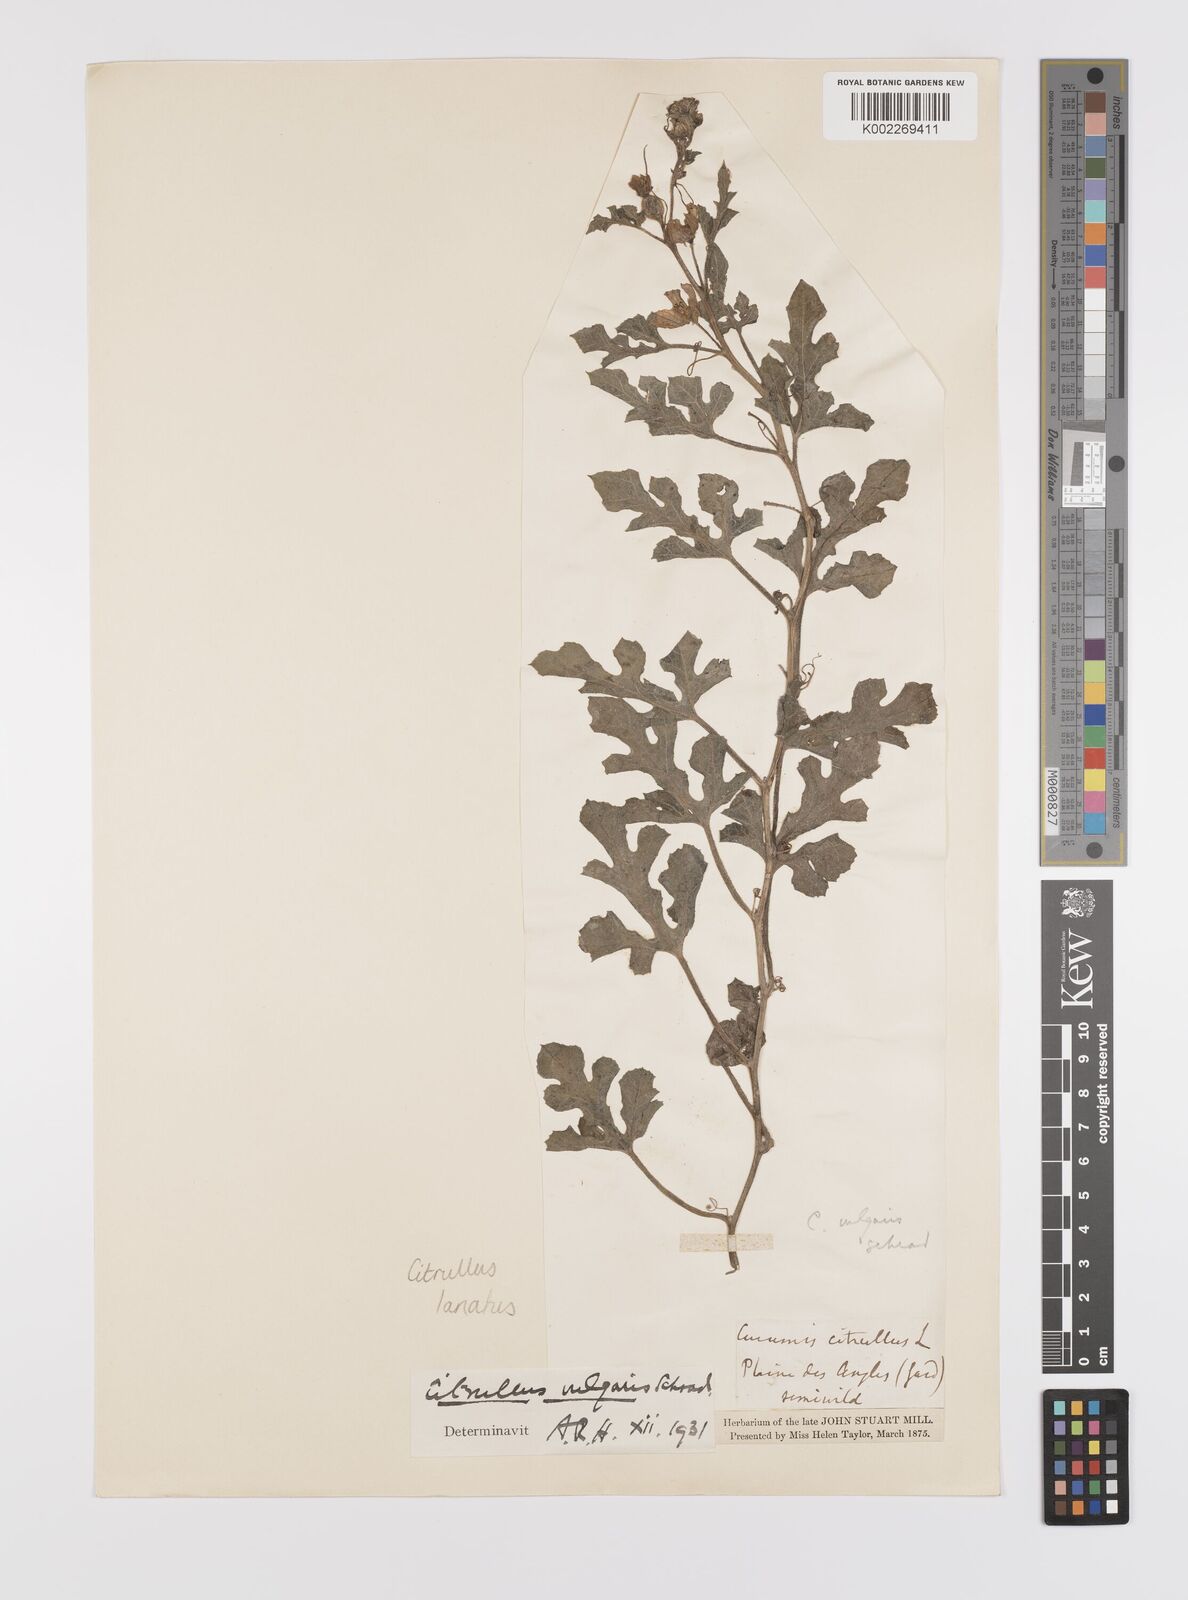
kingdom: Plantae
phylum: Tracheophyta
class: Magnoliopsida
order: Cucurbitales
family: Cucurbitaceae
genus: Citrullus
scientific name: Citrullus lanatus
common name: Watermelon
